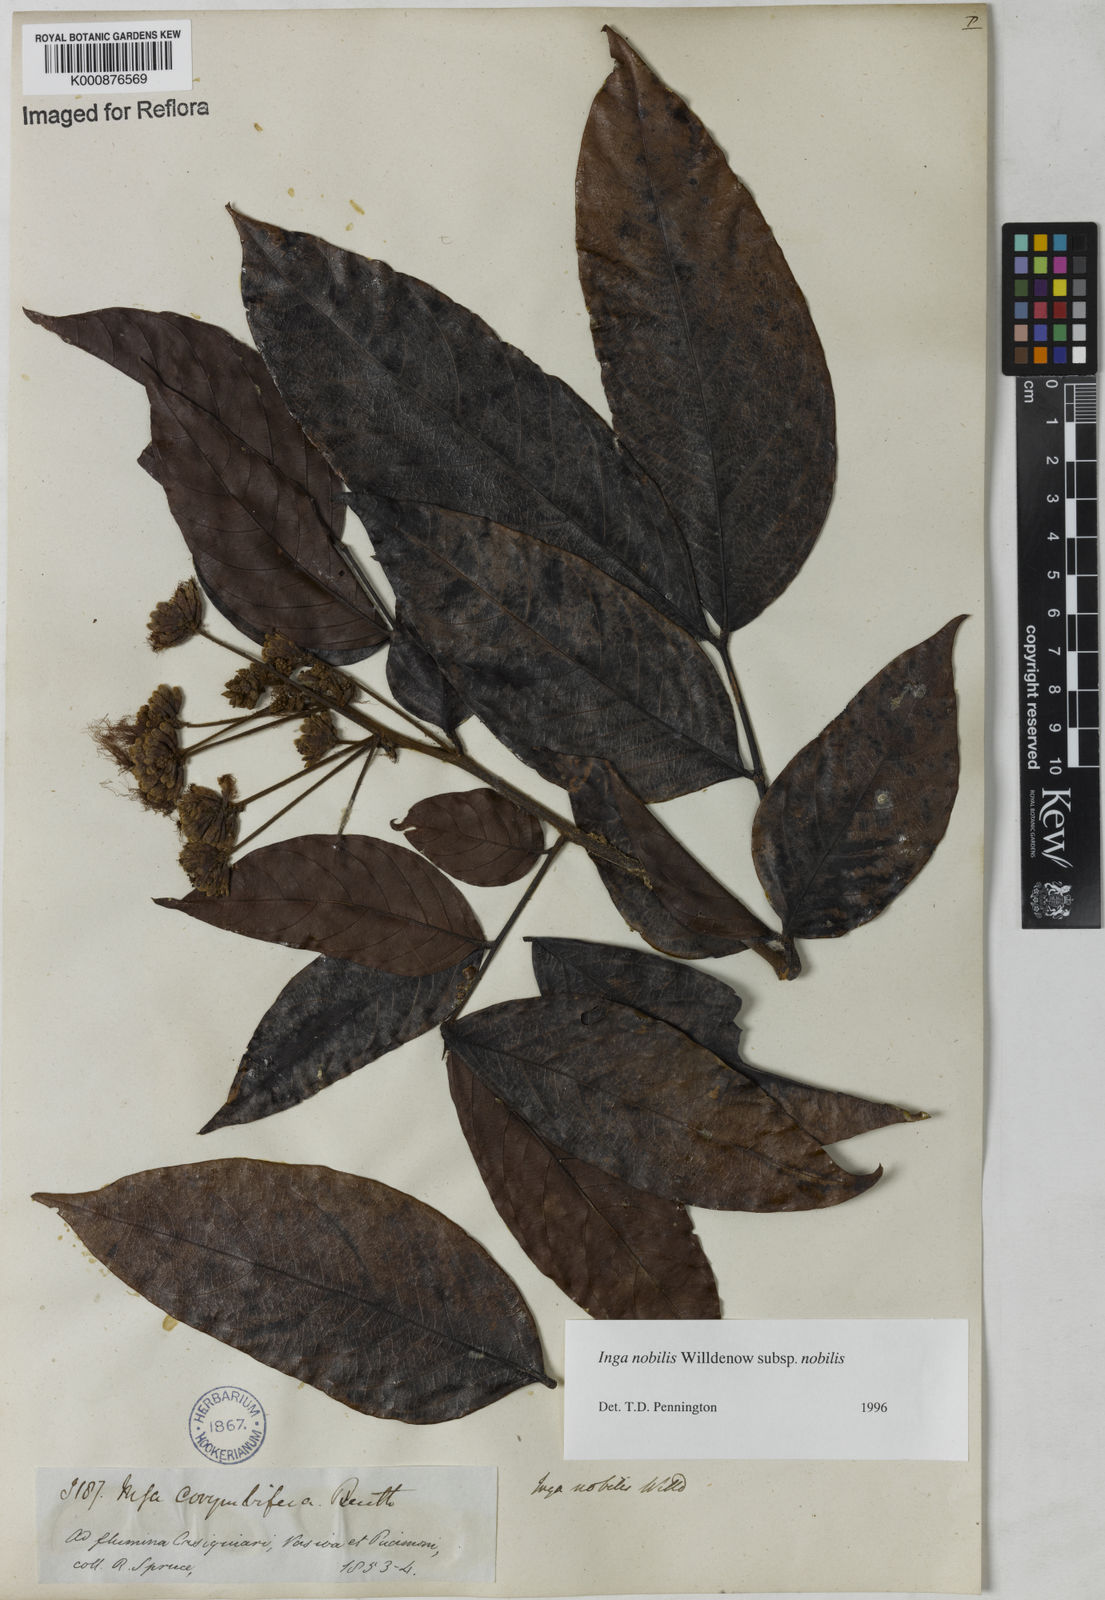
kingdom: Plantae
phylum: Tracheophyta
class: Magnoliopsida
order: Fabales
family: Fabaceae
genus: Inga
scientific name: Inga nobilis
